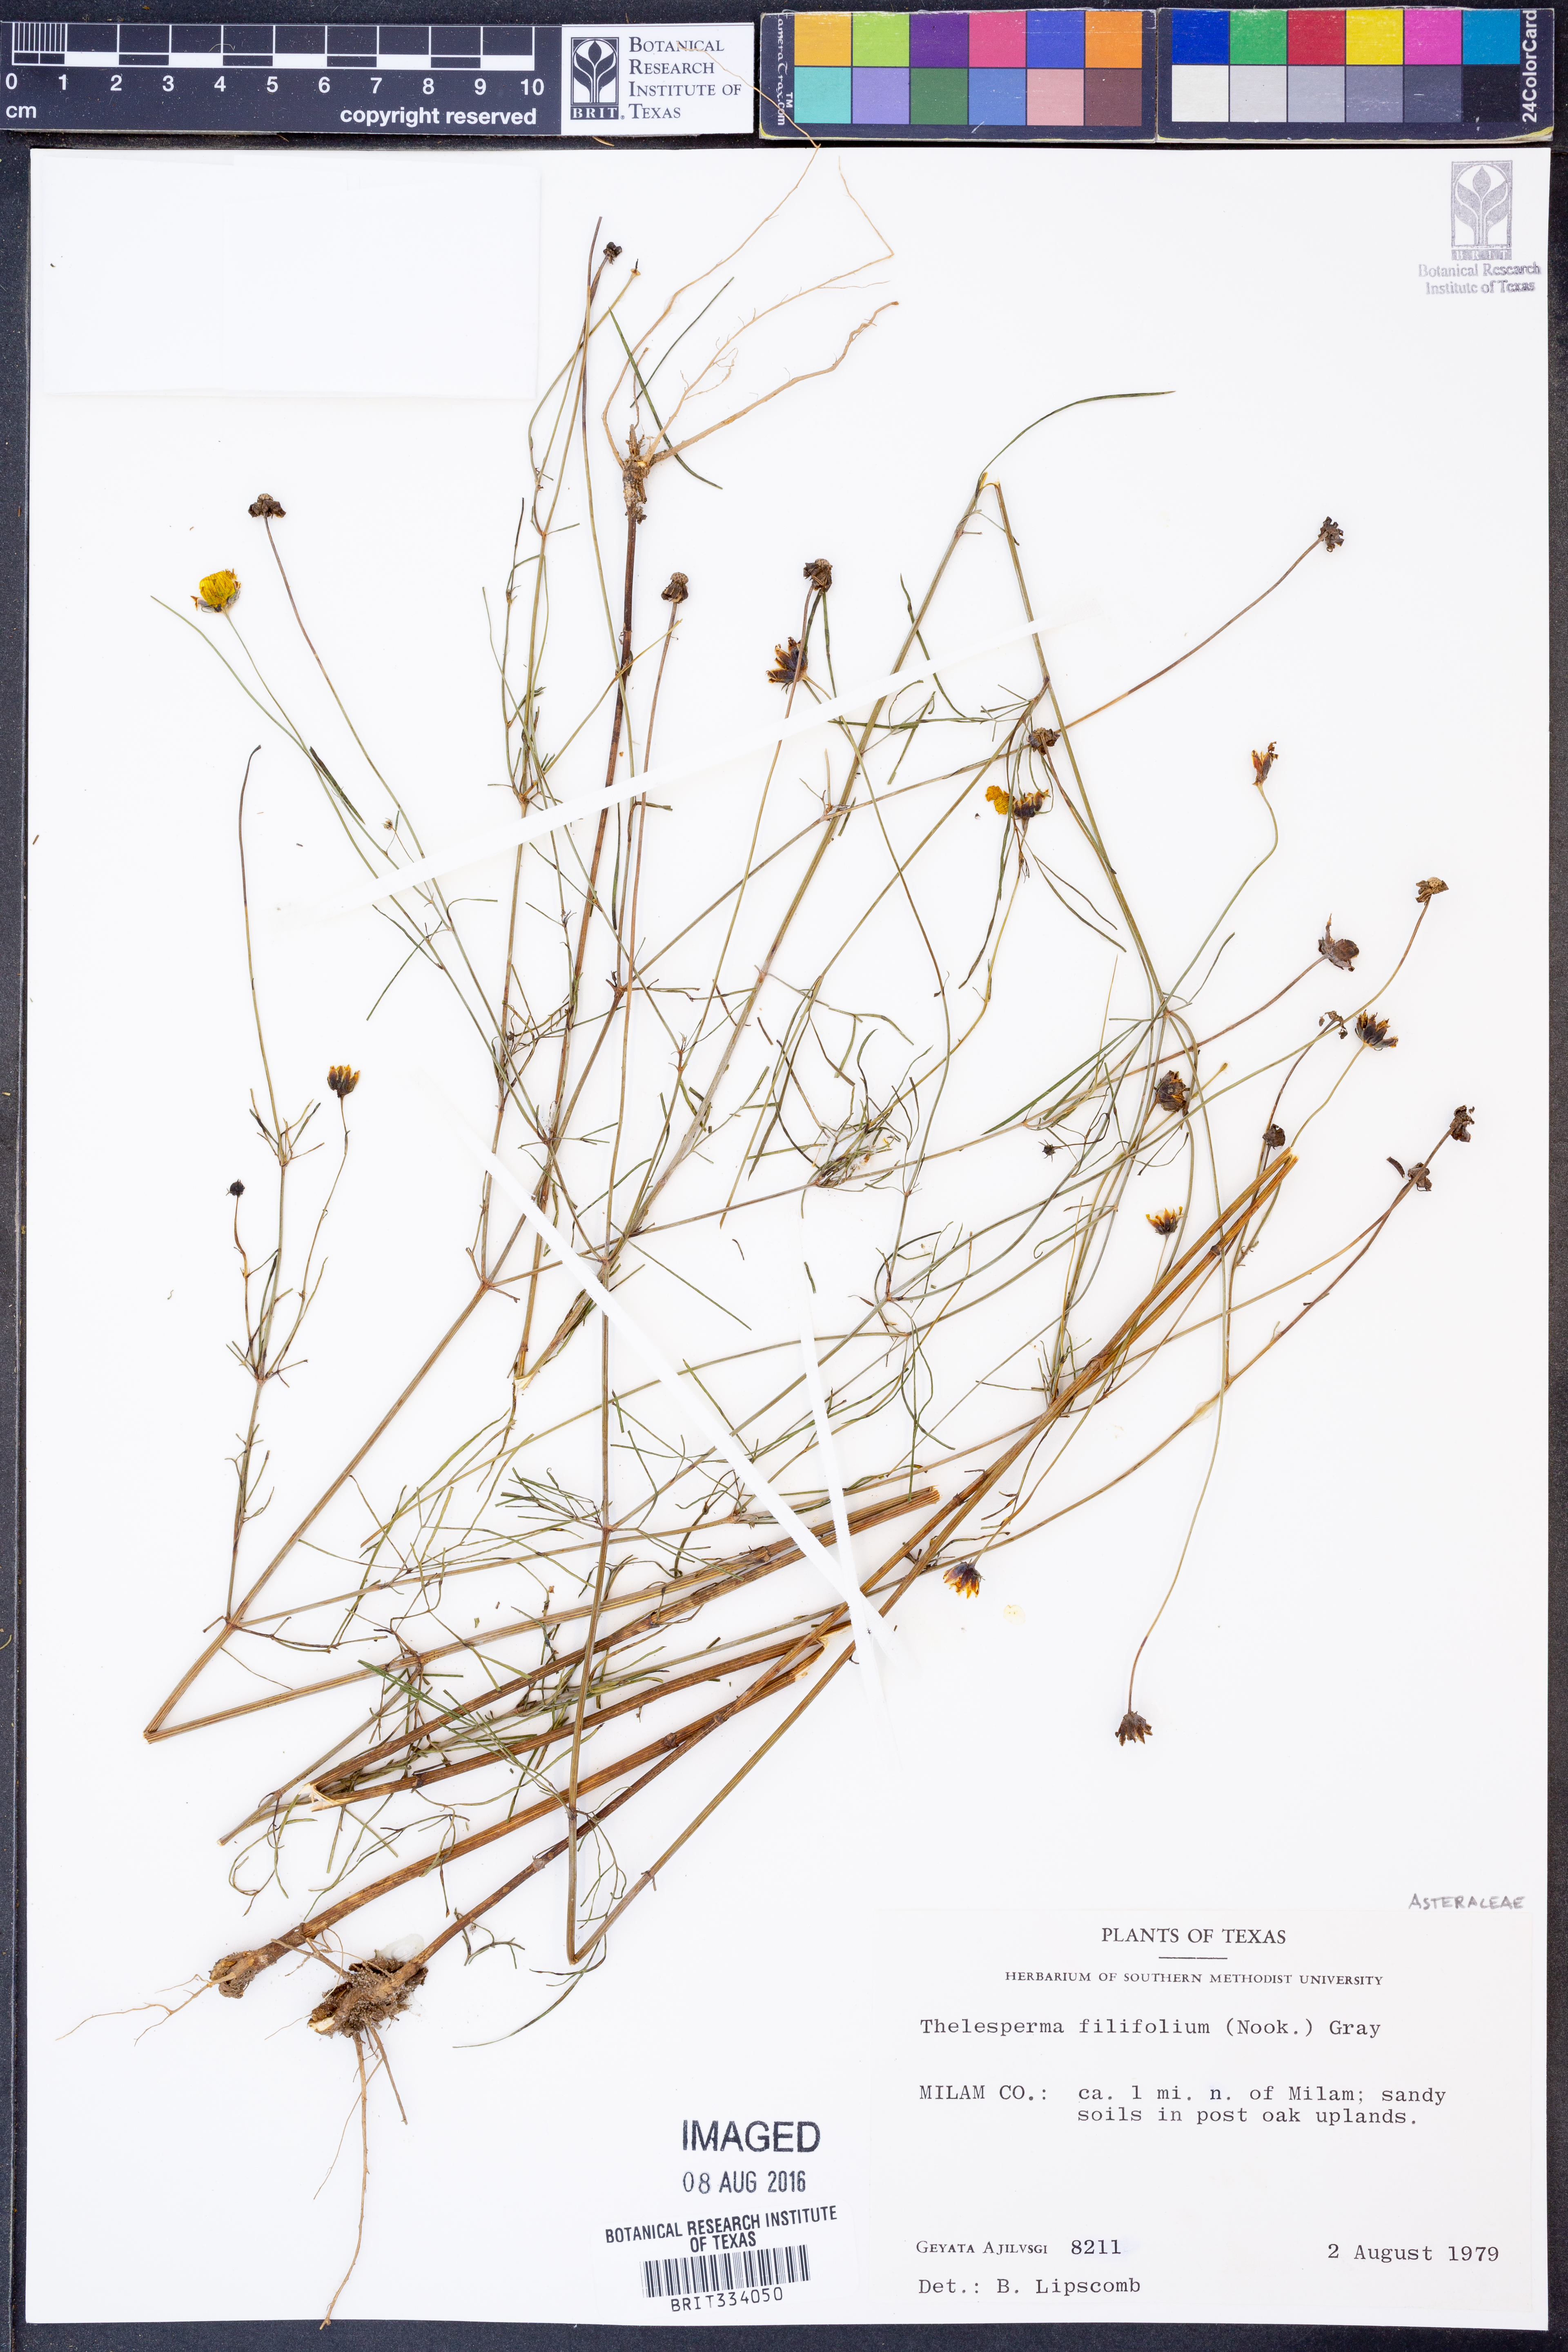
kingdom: Plantae
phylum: Tracheophyta
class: Magnoliopsida
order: Asterales
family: Asteraceae
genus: Thelesperma
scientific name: Thelesperma filifolium
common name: Stiff greenthread
